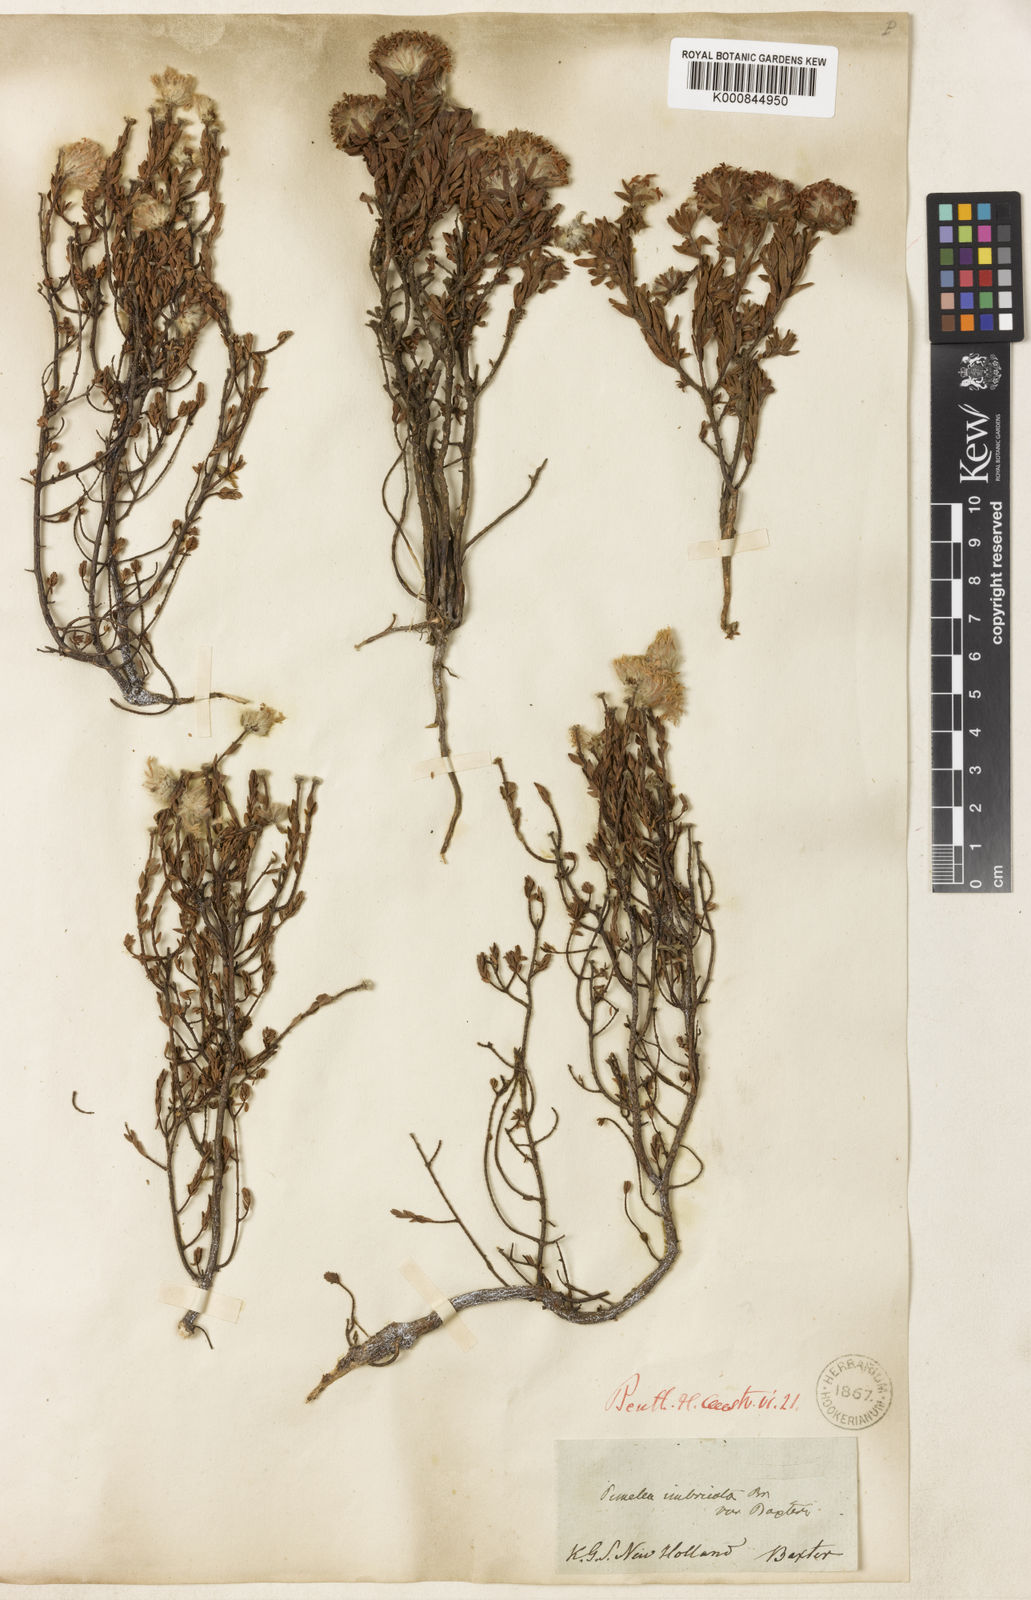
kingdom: Plantae
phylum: Tracheophyta
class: Magnoliopsida
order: Malvales
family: Thymelaeaceae
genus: Pimelea
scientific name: Pimelea imbricata
